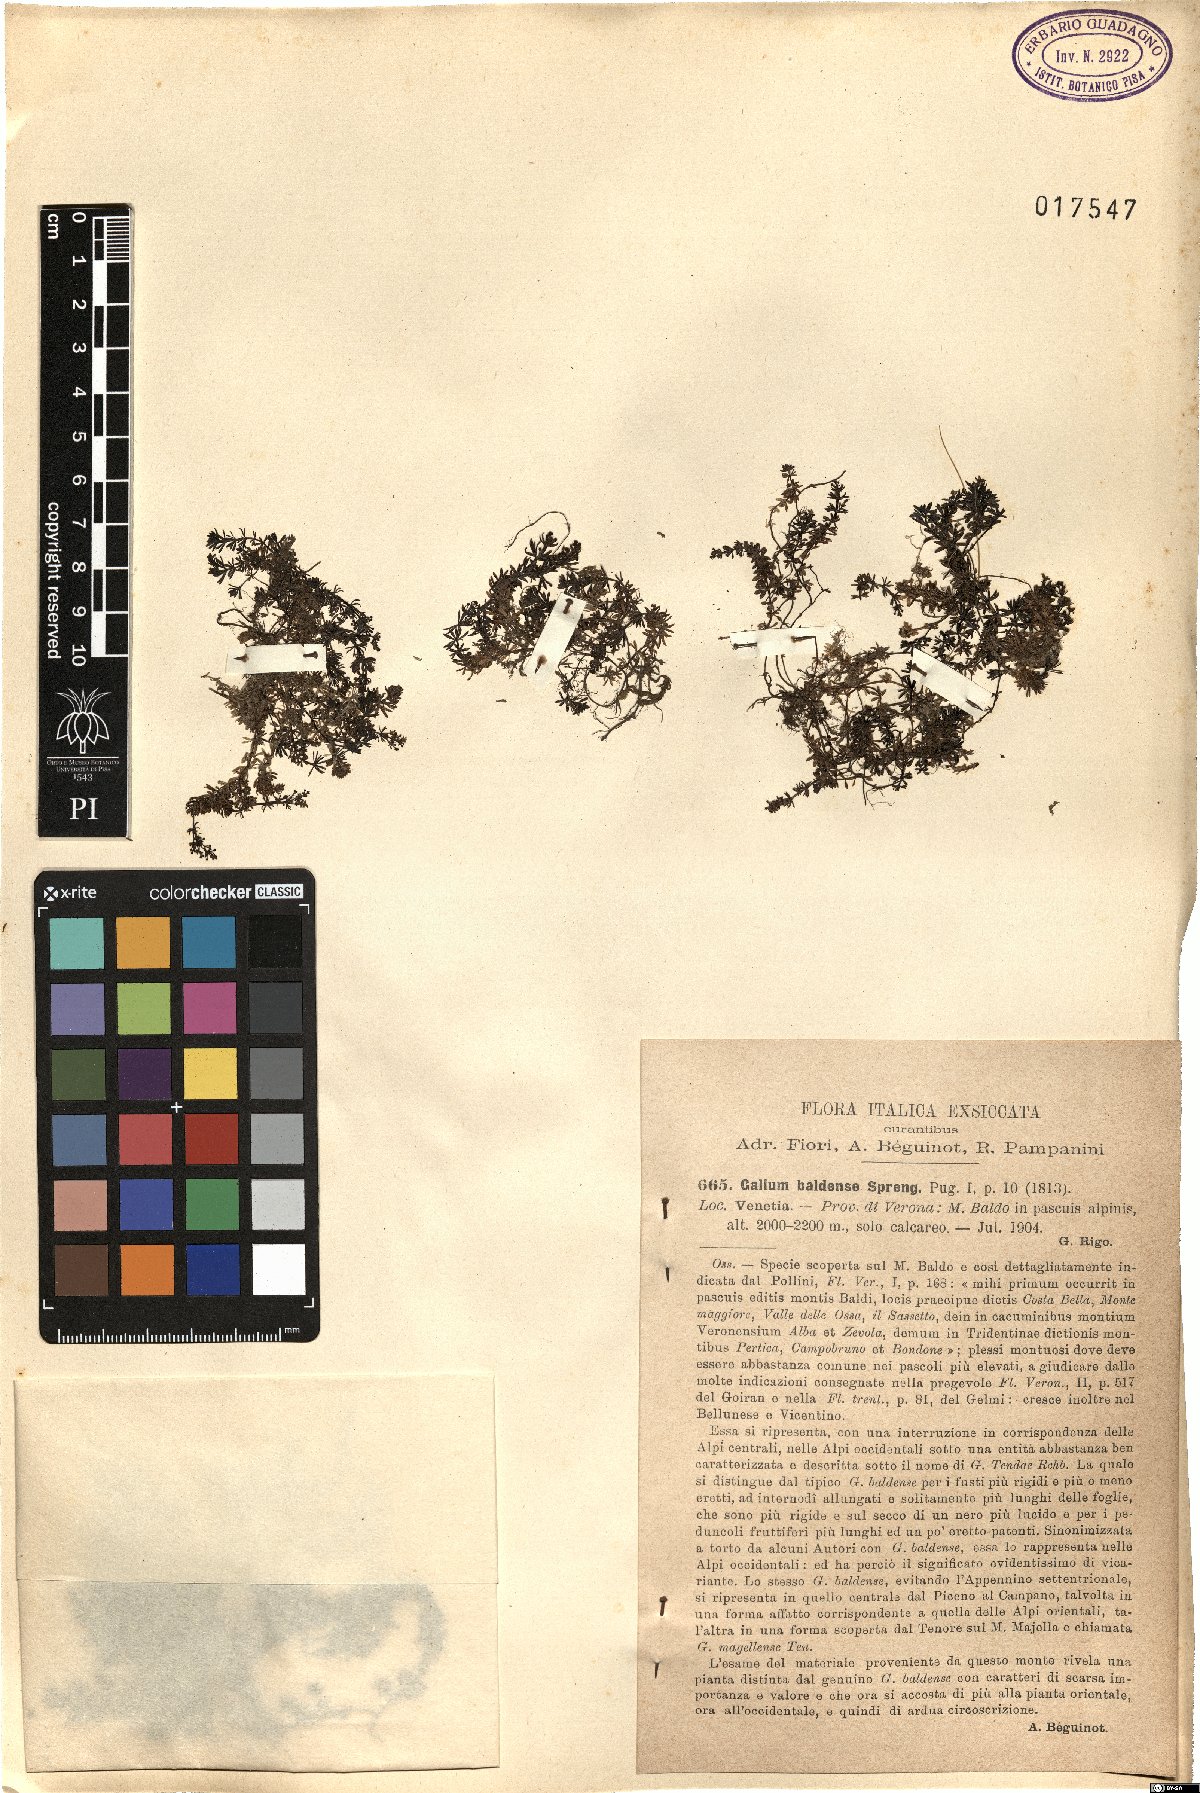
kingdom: Plantae
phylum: Tracheophyta
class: Magnoliopsida
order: Gentianales
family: Rubiaceae
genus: Galium
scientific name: Galium baldense
